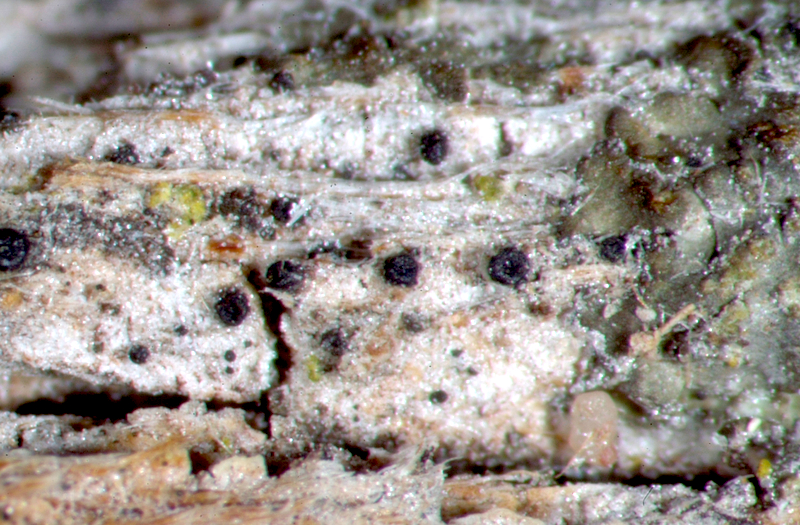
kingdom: Fungi
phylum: Ascomycota
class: Lecanoromycetes
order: Caliciales
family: Physciaceae
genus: Hyperphyscia
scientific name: Hyperphyscia syncolla
